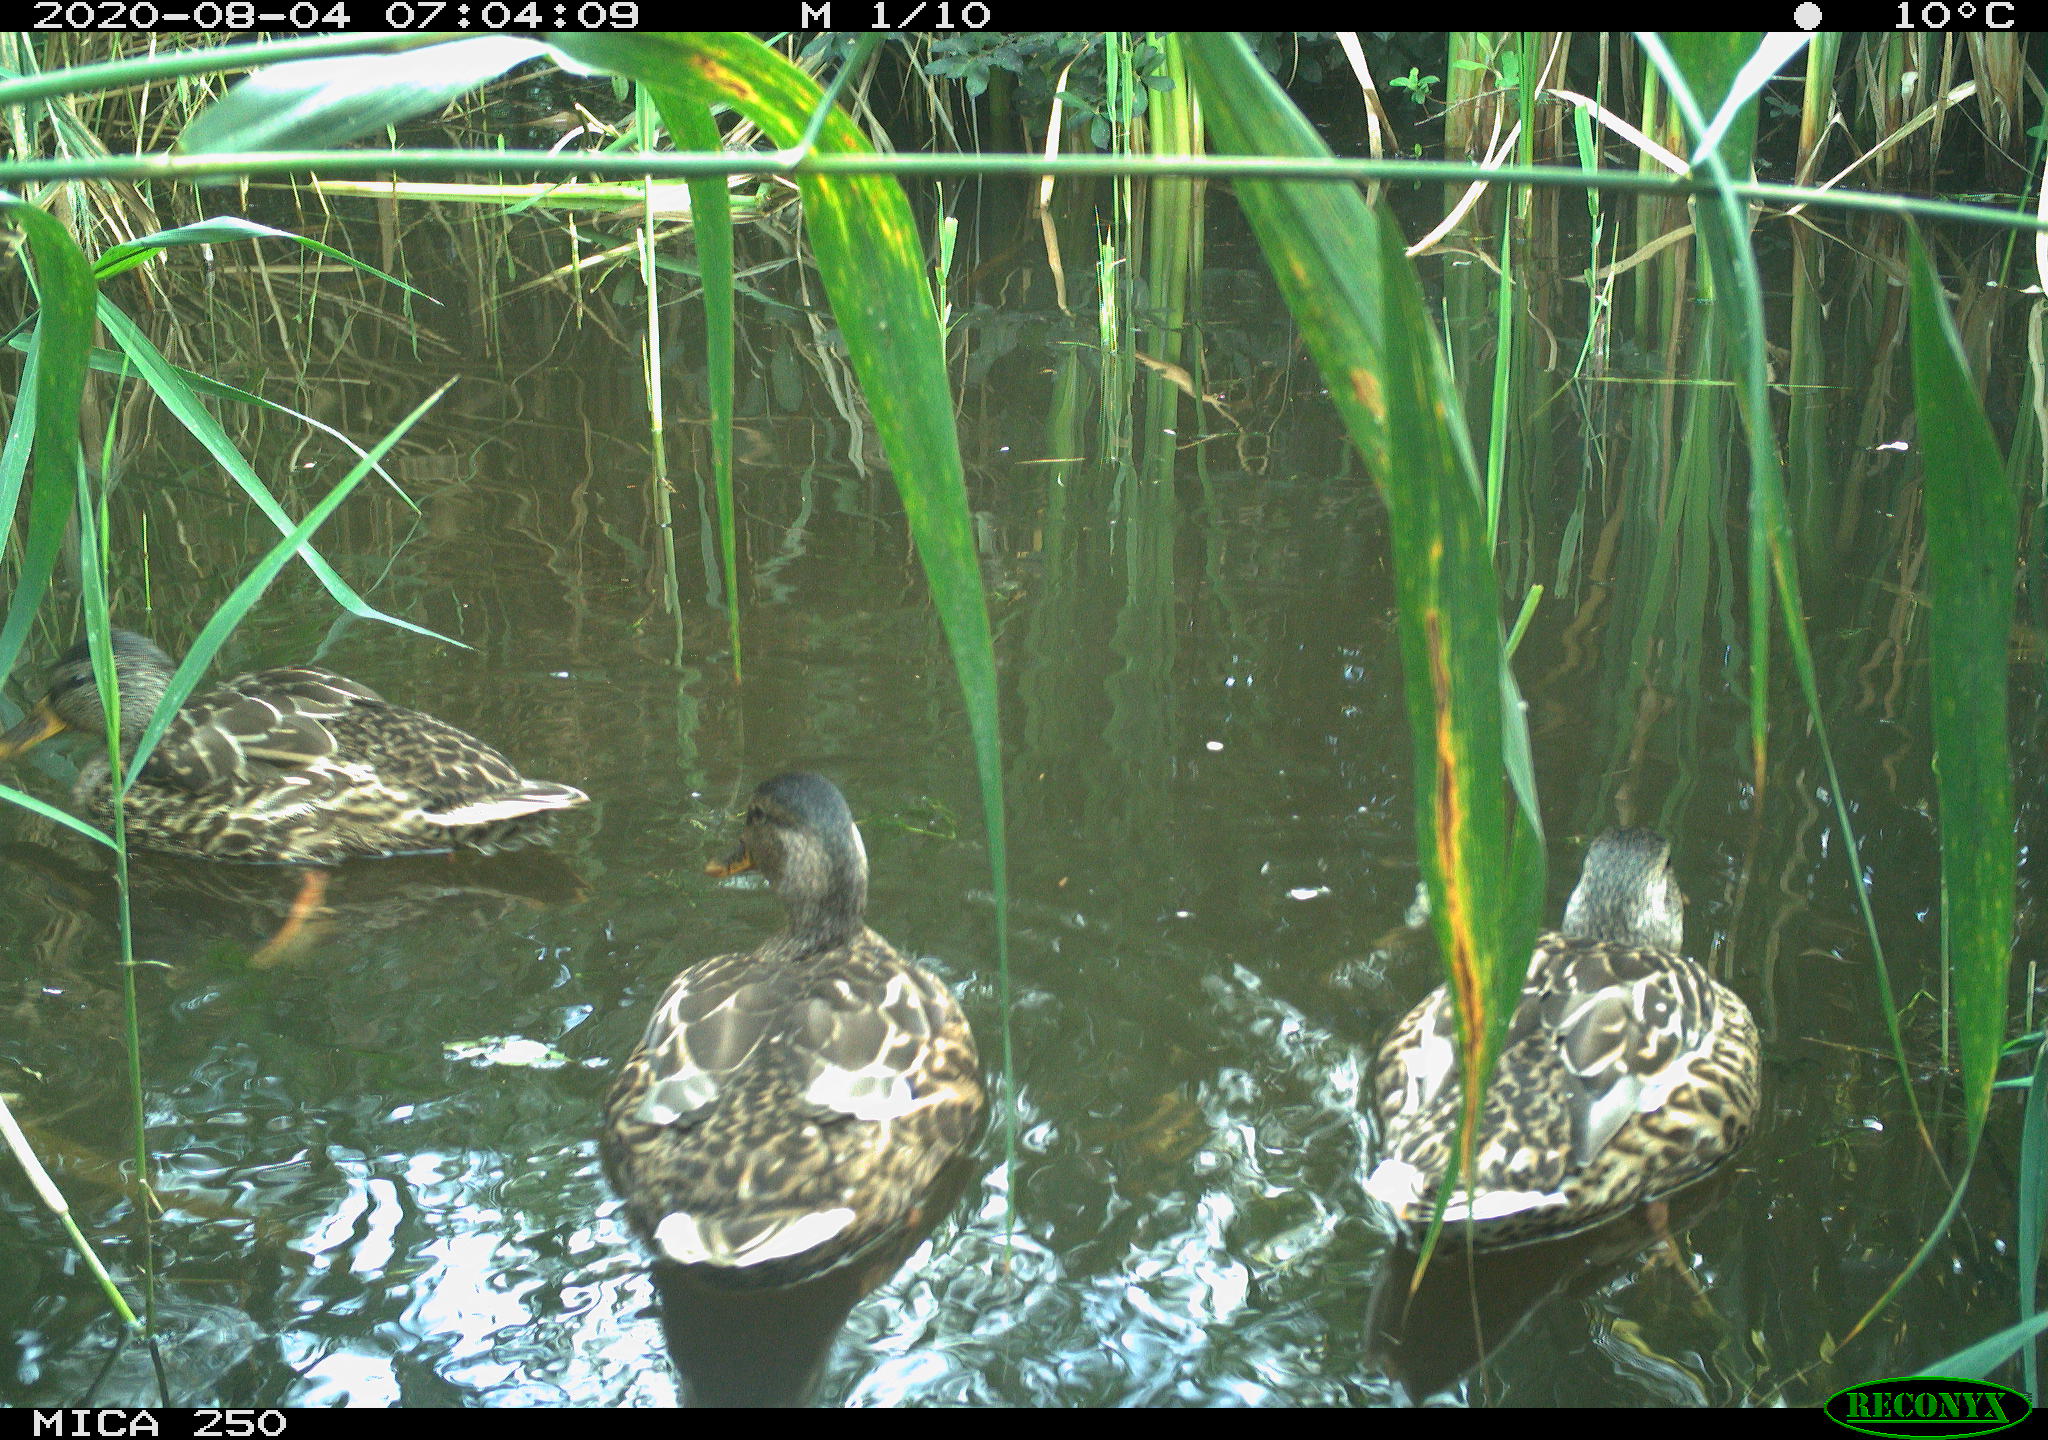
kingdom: Animalia
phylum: Chordata
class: Aves
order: Anseriformes
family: Anatidae
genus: Anas
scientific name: Anas platyrhynchos
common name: Mallard
